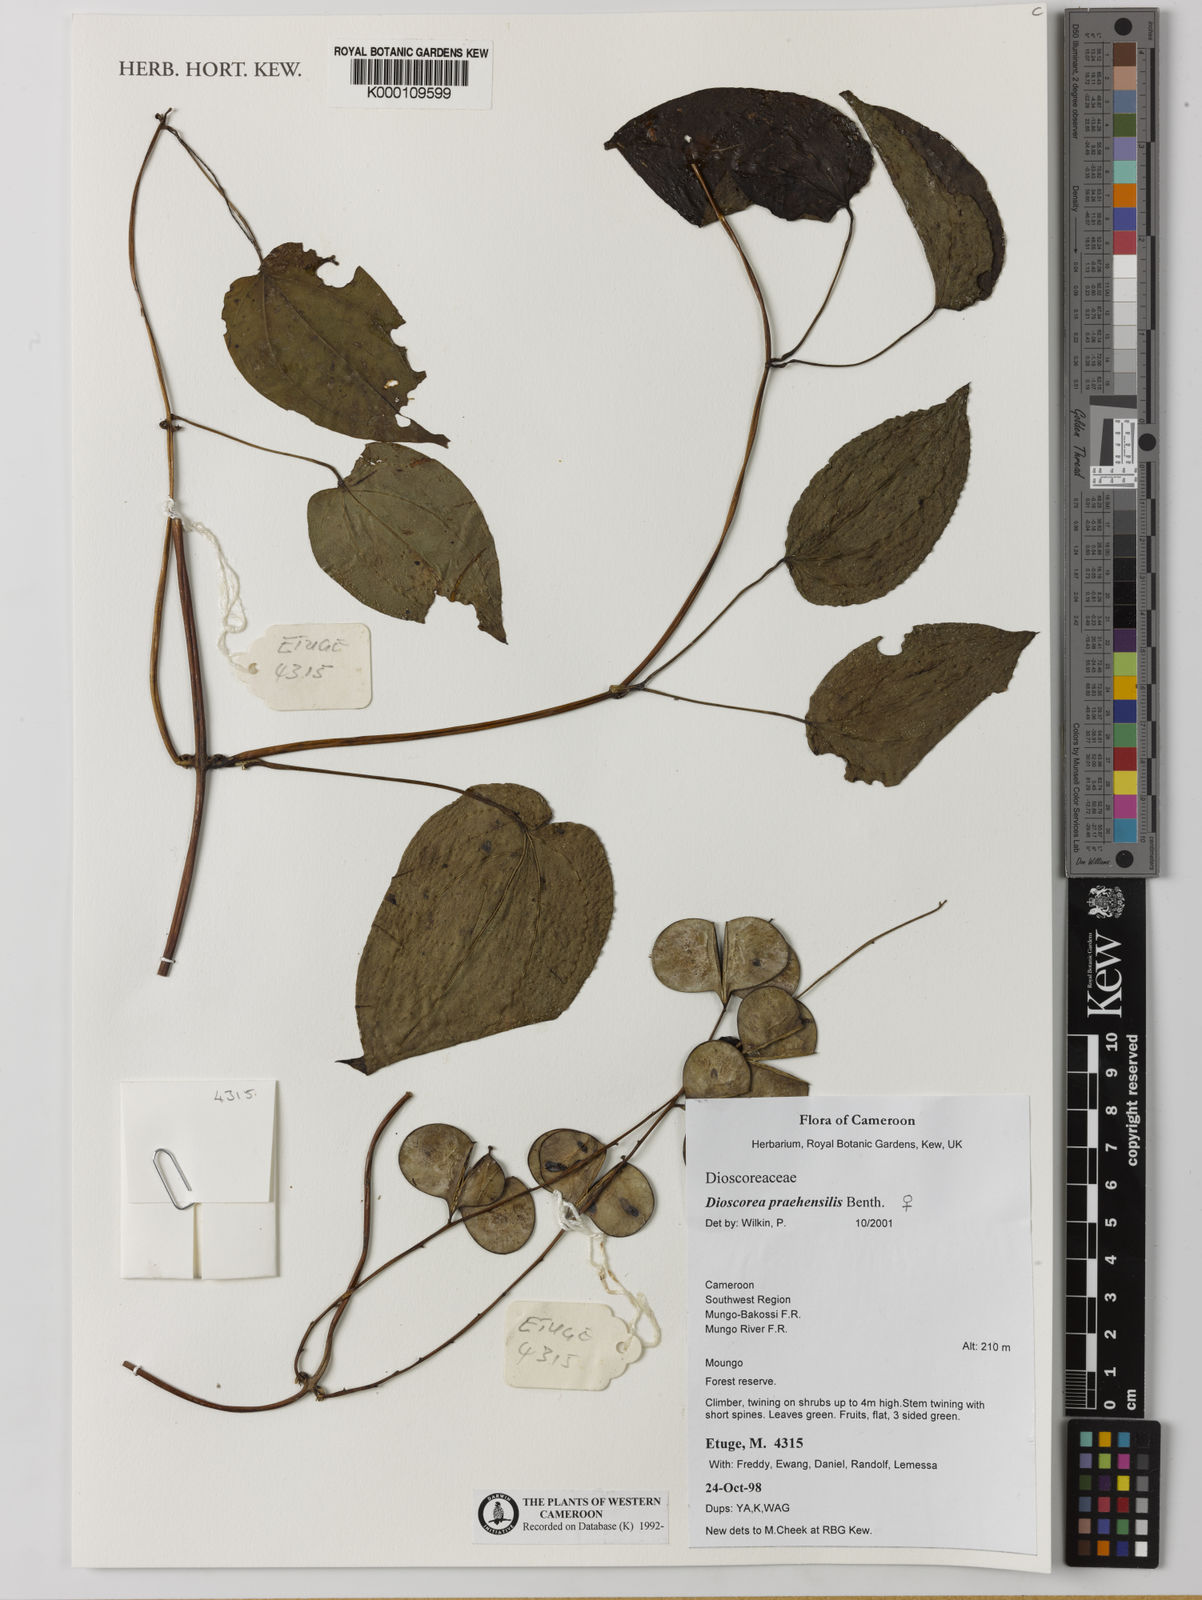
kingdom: Plantae
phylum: Tracheophyta
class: Liliopsida
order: Dioscoreales
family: Dioscoreaceae
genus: Dioscorea
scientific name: Dioscorea praehensilis
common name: Bush yam
